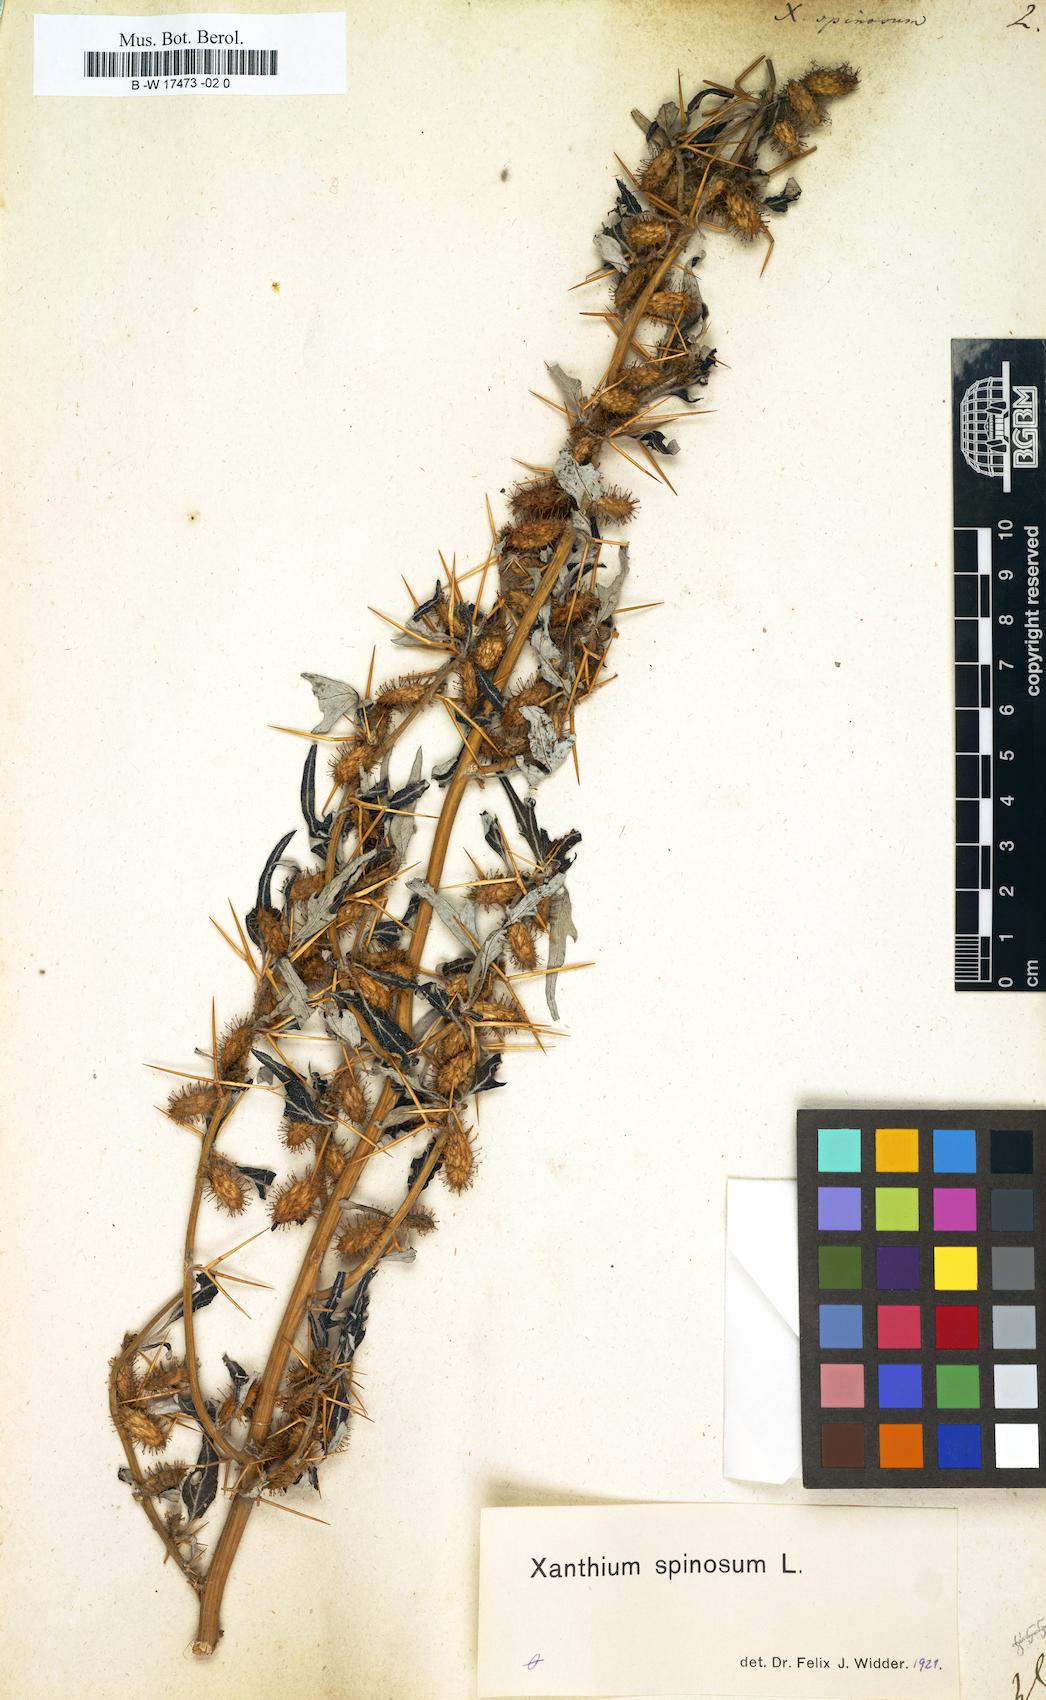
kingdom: Plantae
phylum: Tracheophyta
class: Magnoliopsida
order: Asterales
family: Asteraceae
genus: Xanthium
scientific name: Xanthium spinosum
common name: Spiny cocklebur
